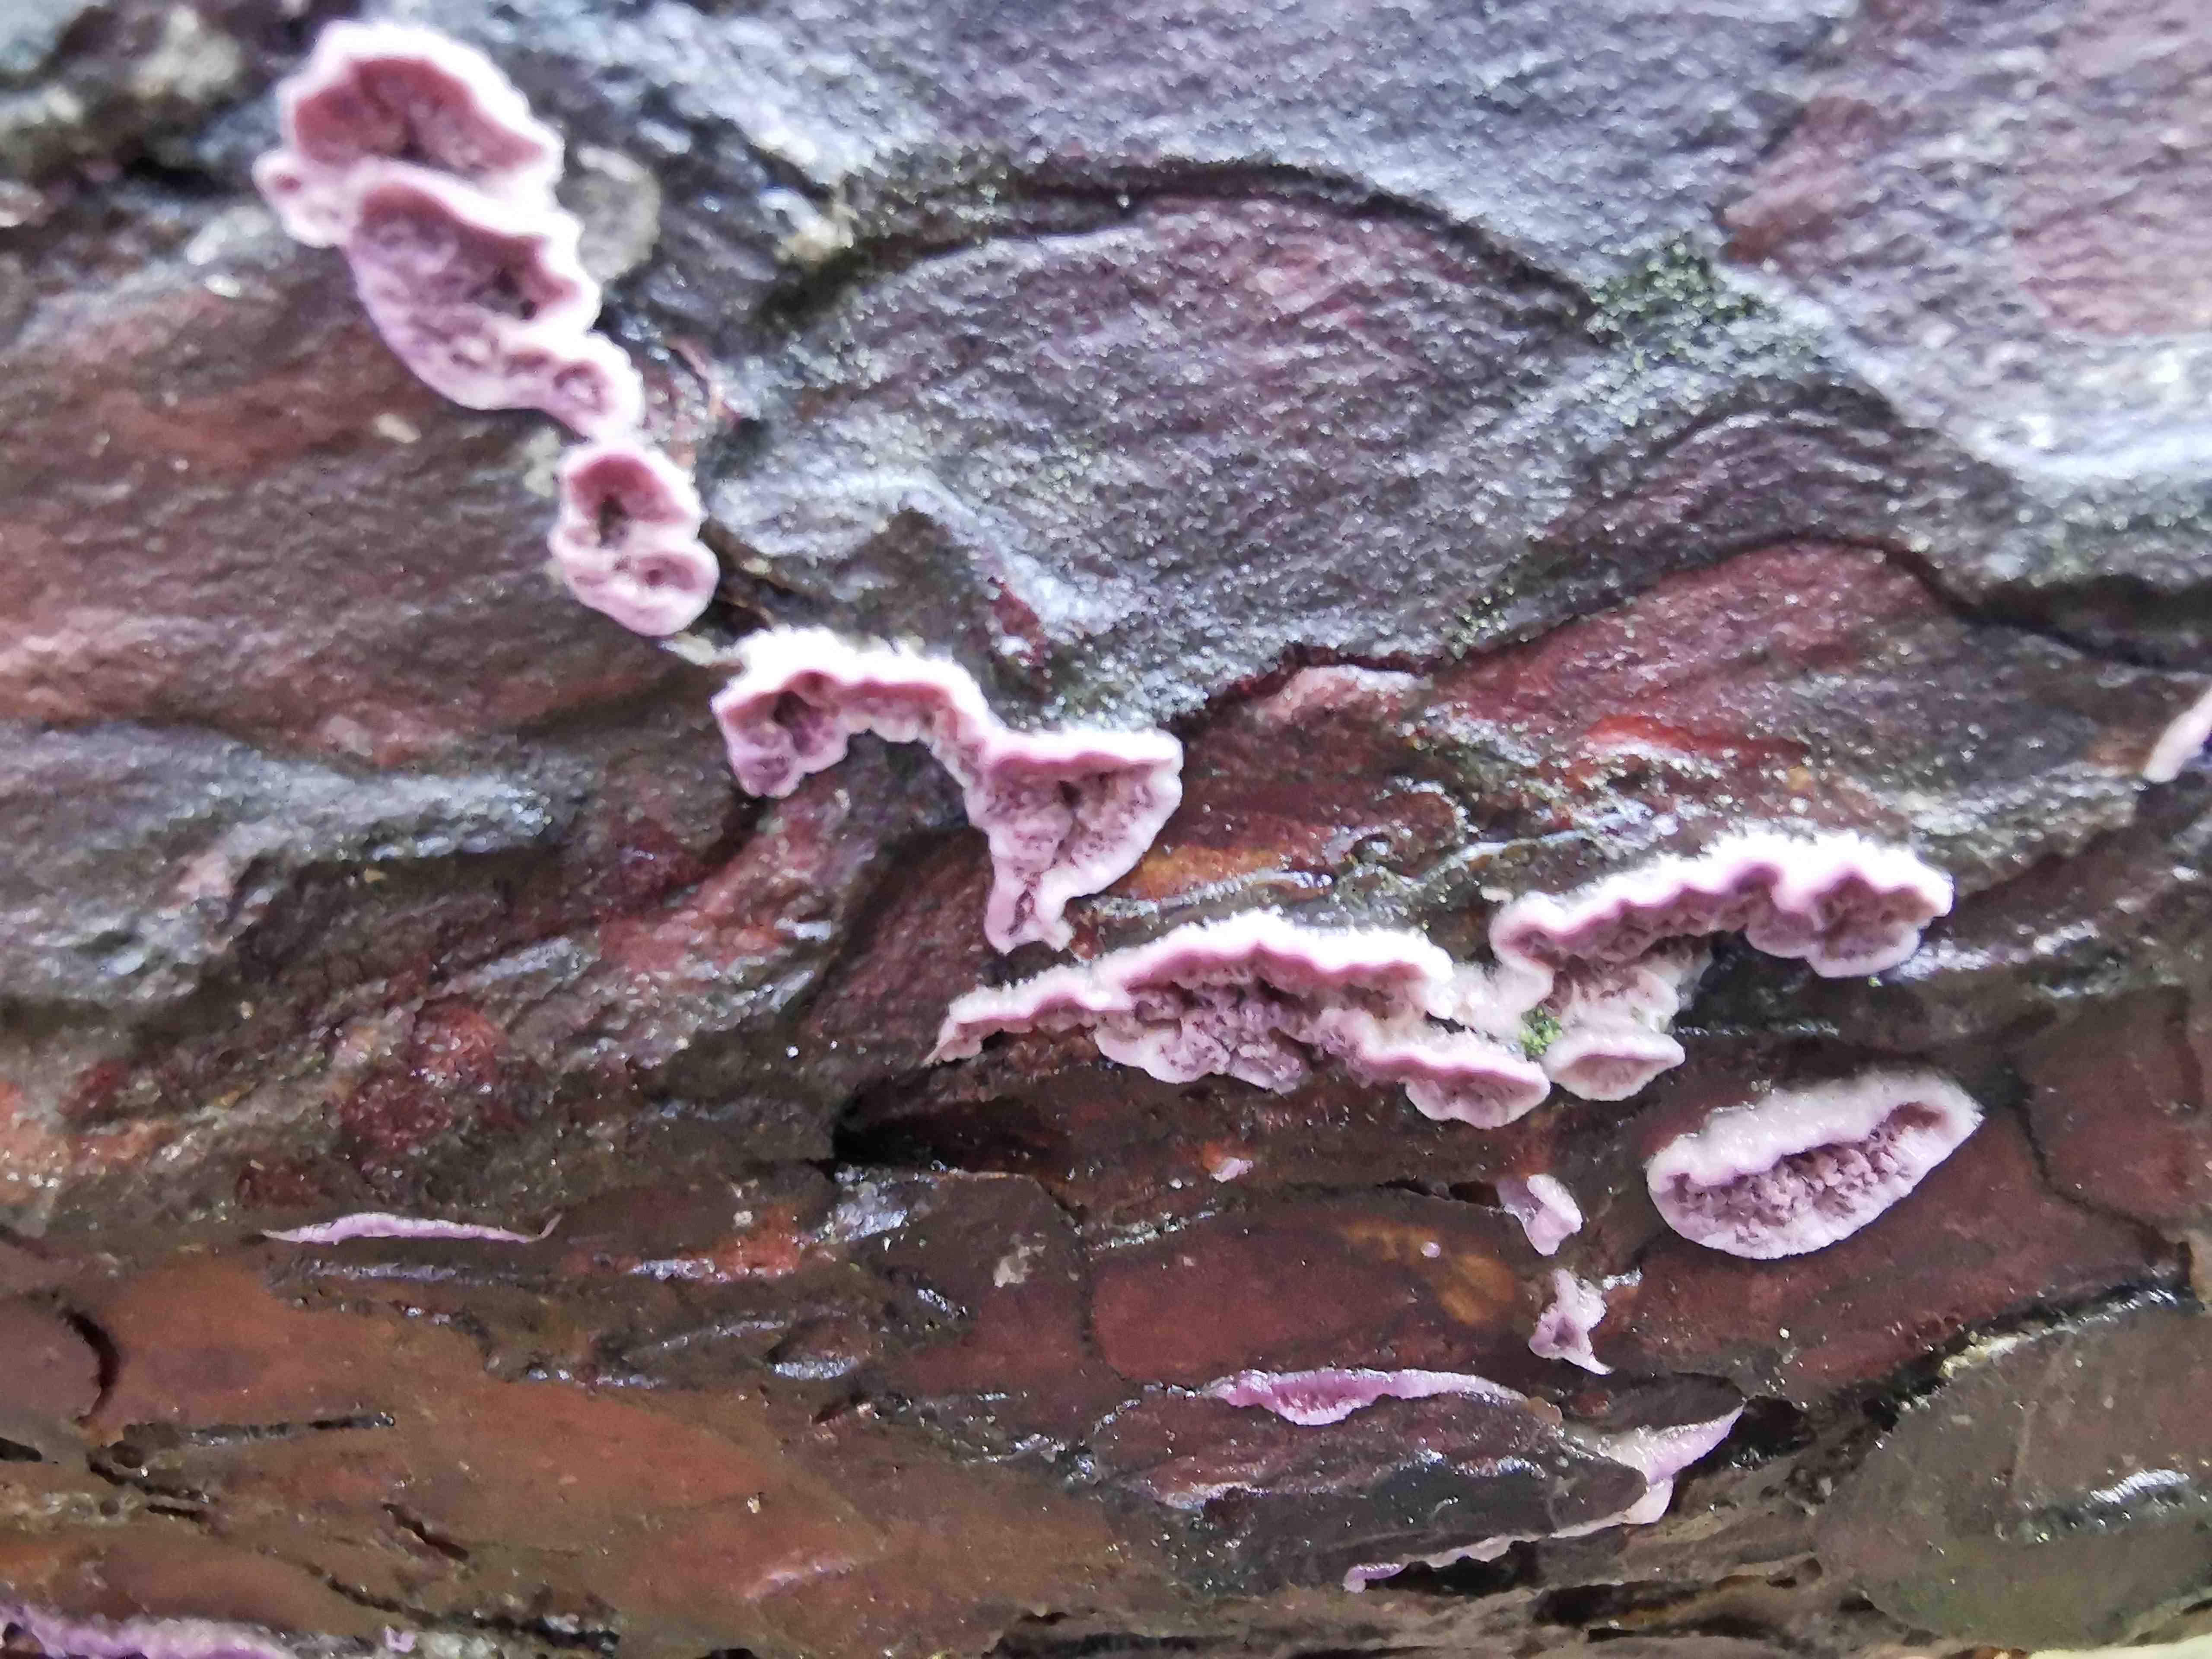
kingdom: Fungi
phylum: Basidiomycota
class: Agaricomycetes
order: Polyporales
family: Polyporaceae
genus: Trichaptum
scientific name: Trichaptum
